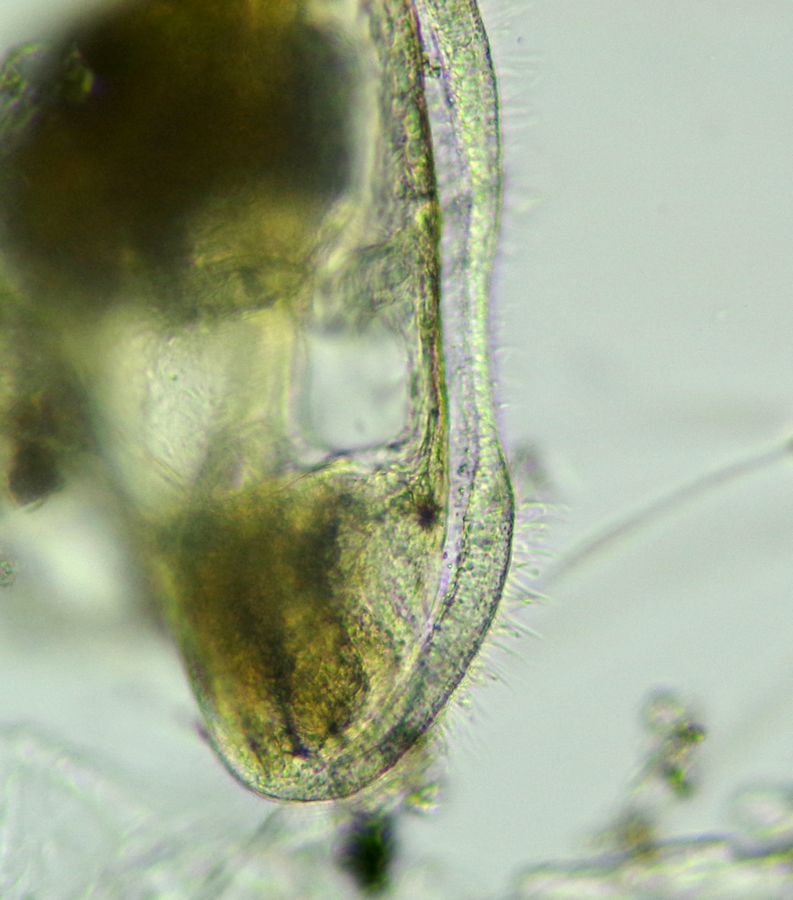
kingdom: Animalia
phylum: Bryozoa
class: Gymnolaemata
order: Cheilostomatida
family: Electridae
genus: Electra
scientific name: Electra pilosa
